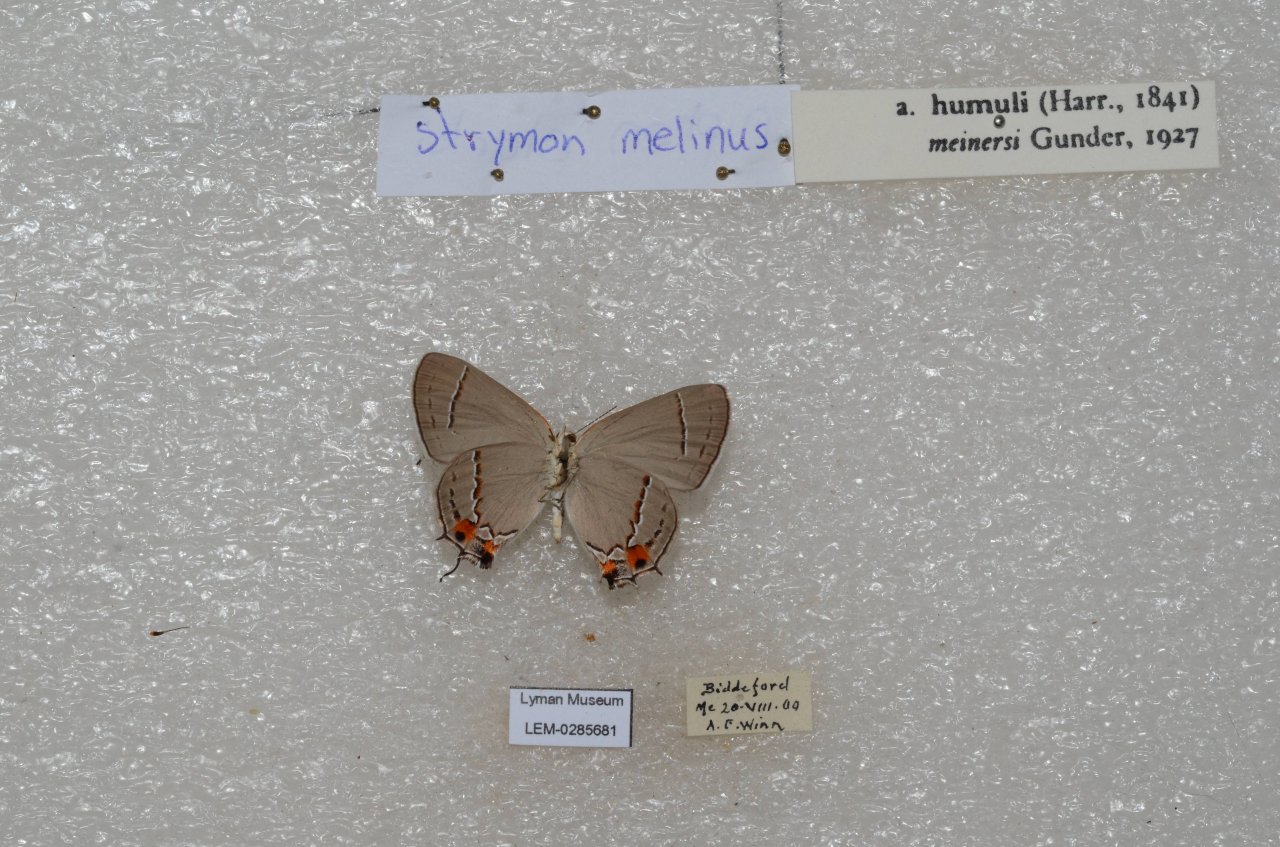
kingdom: Animalia
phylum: Arthropoda
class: Insecta
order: Lepidoptera
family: Lycaenidae
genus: Strymon
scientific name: Strymon melinus
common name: Gray Hairstreak
